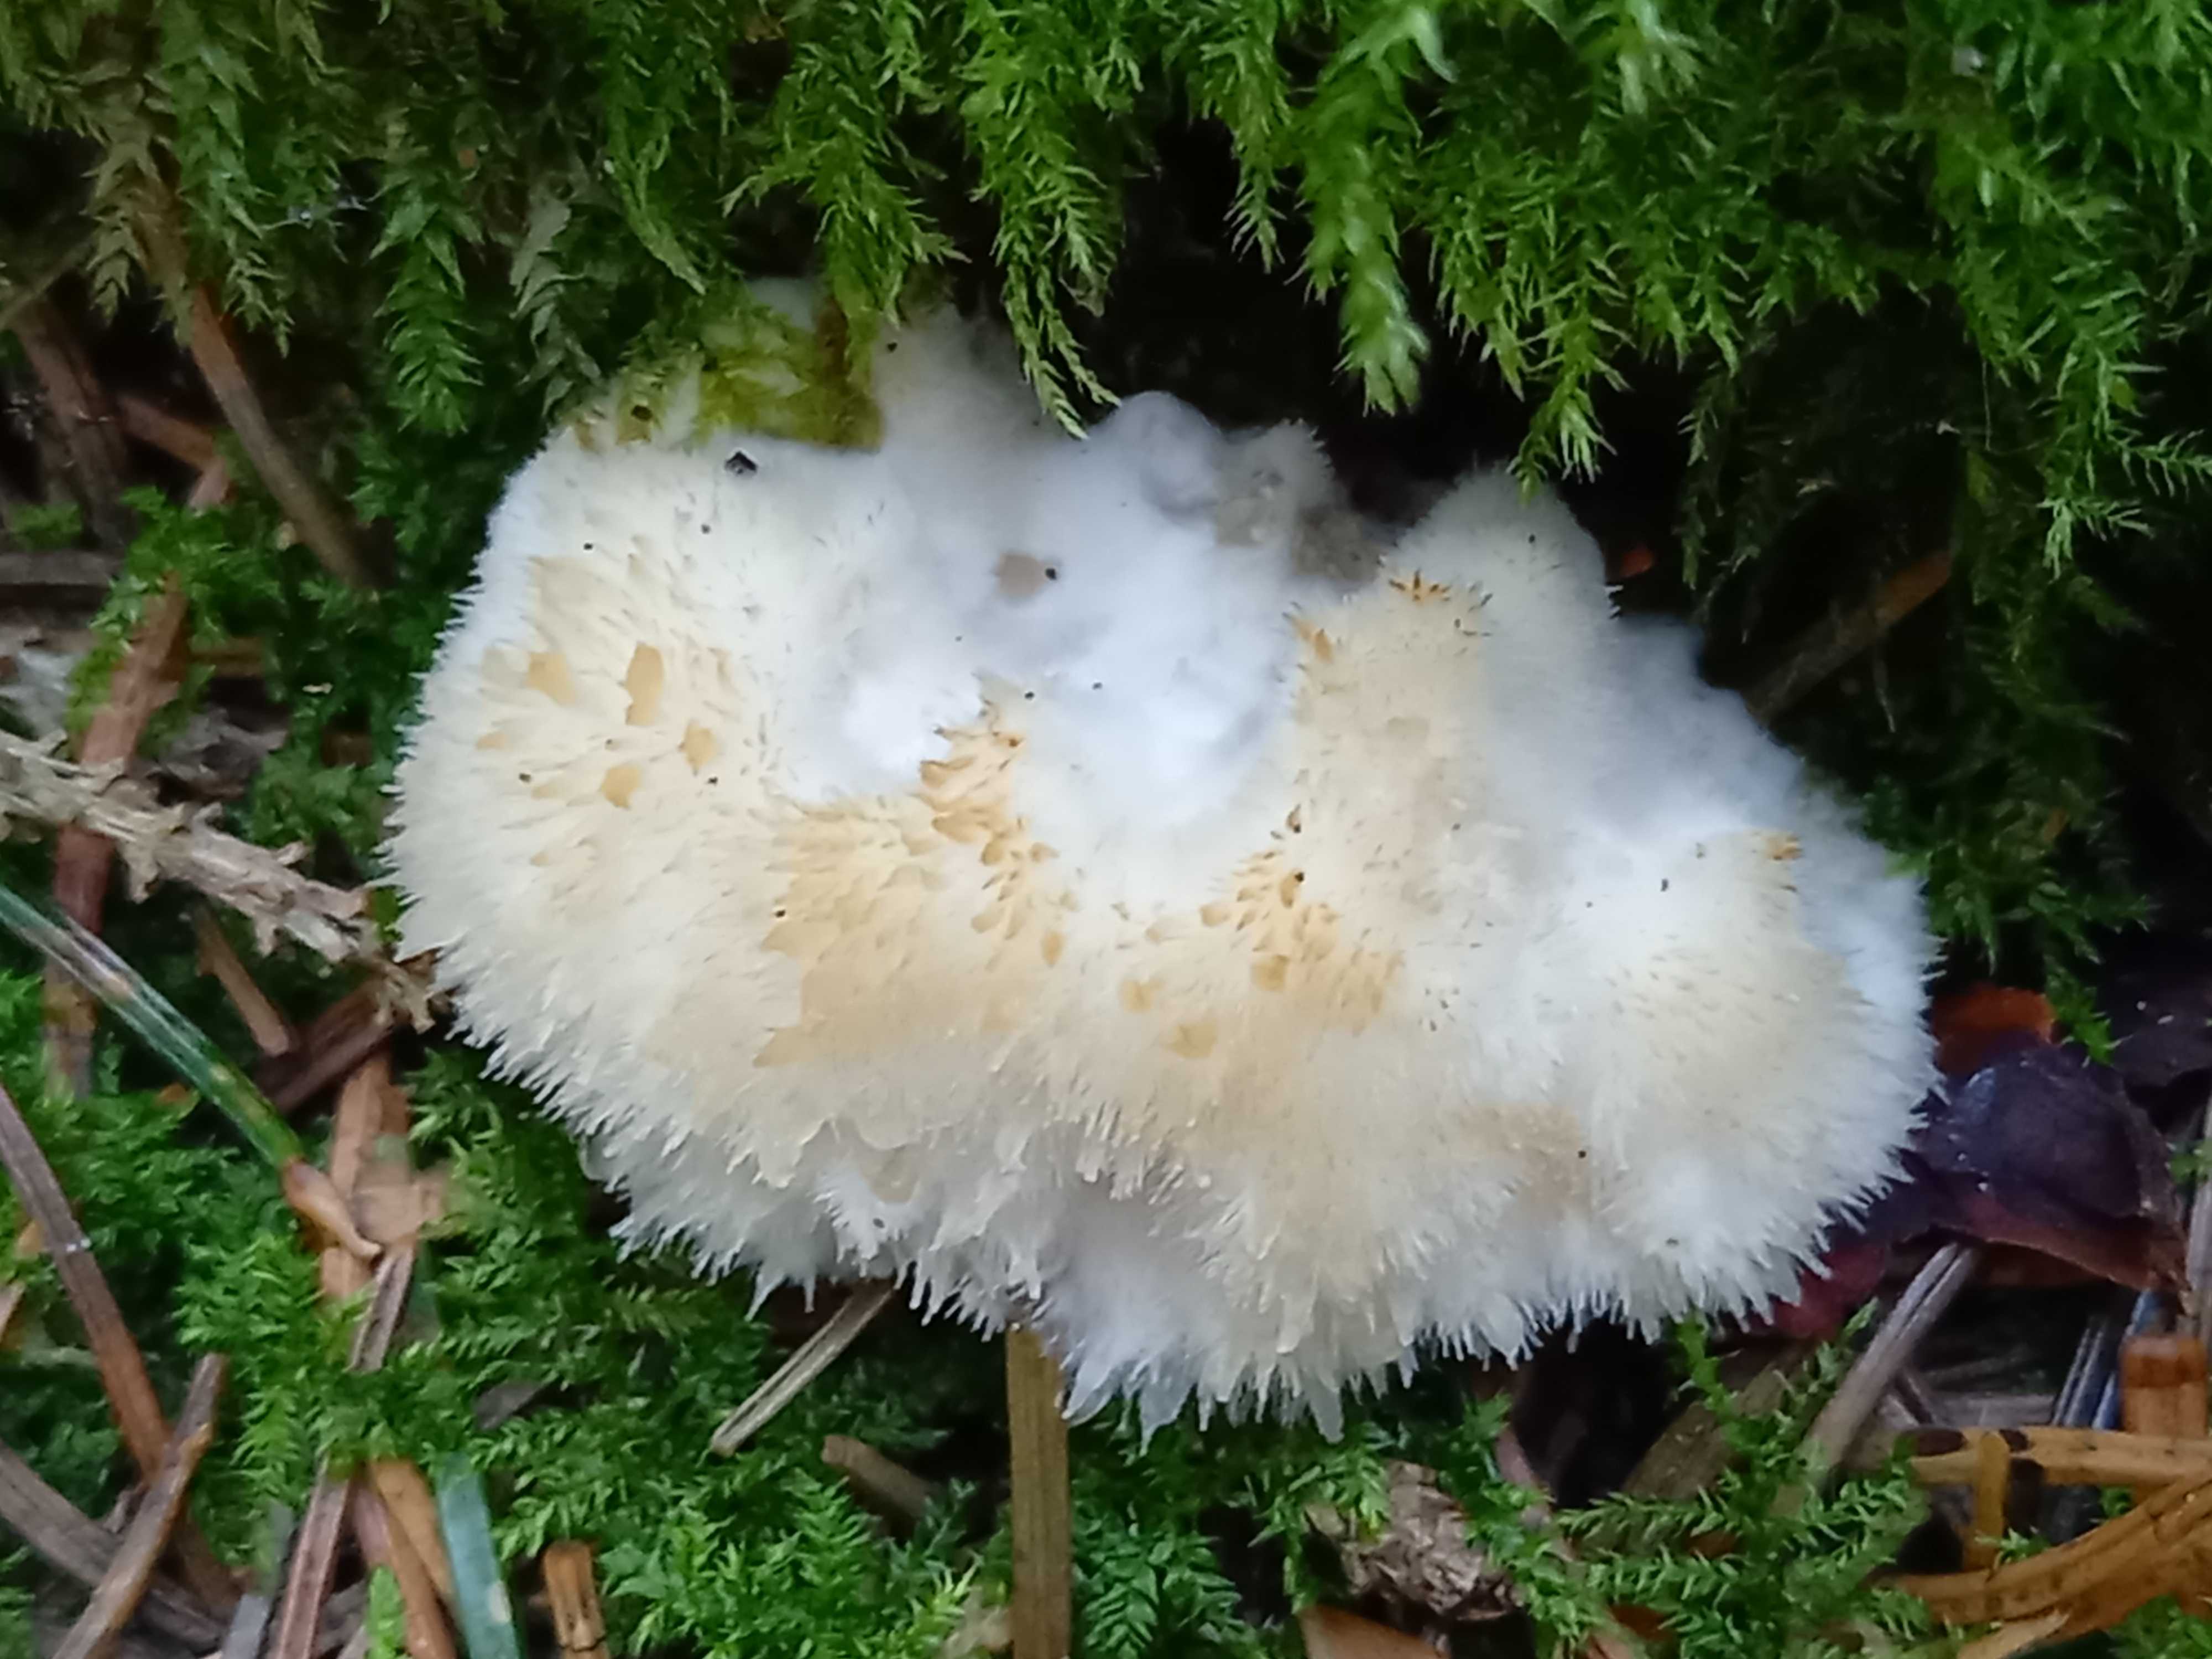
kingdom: Fungi
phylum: Basidiomycota
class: Agaricomycetes
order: Polyporales
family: Dacryobolaceae
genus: Postia
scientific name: Postia ptychogaster
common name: støvende kødporesvamp
